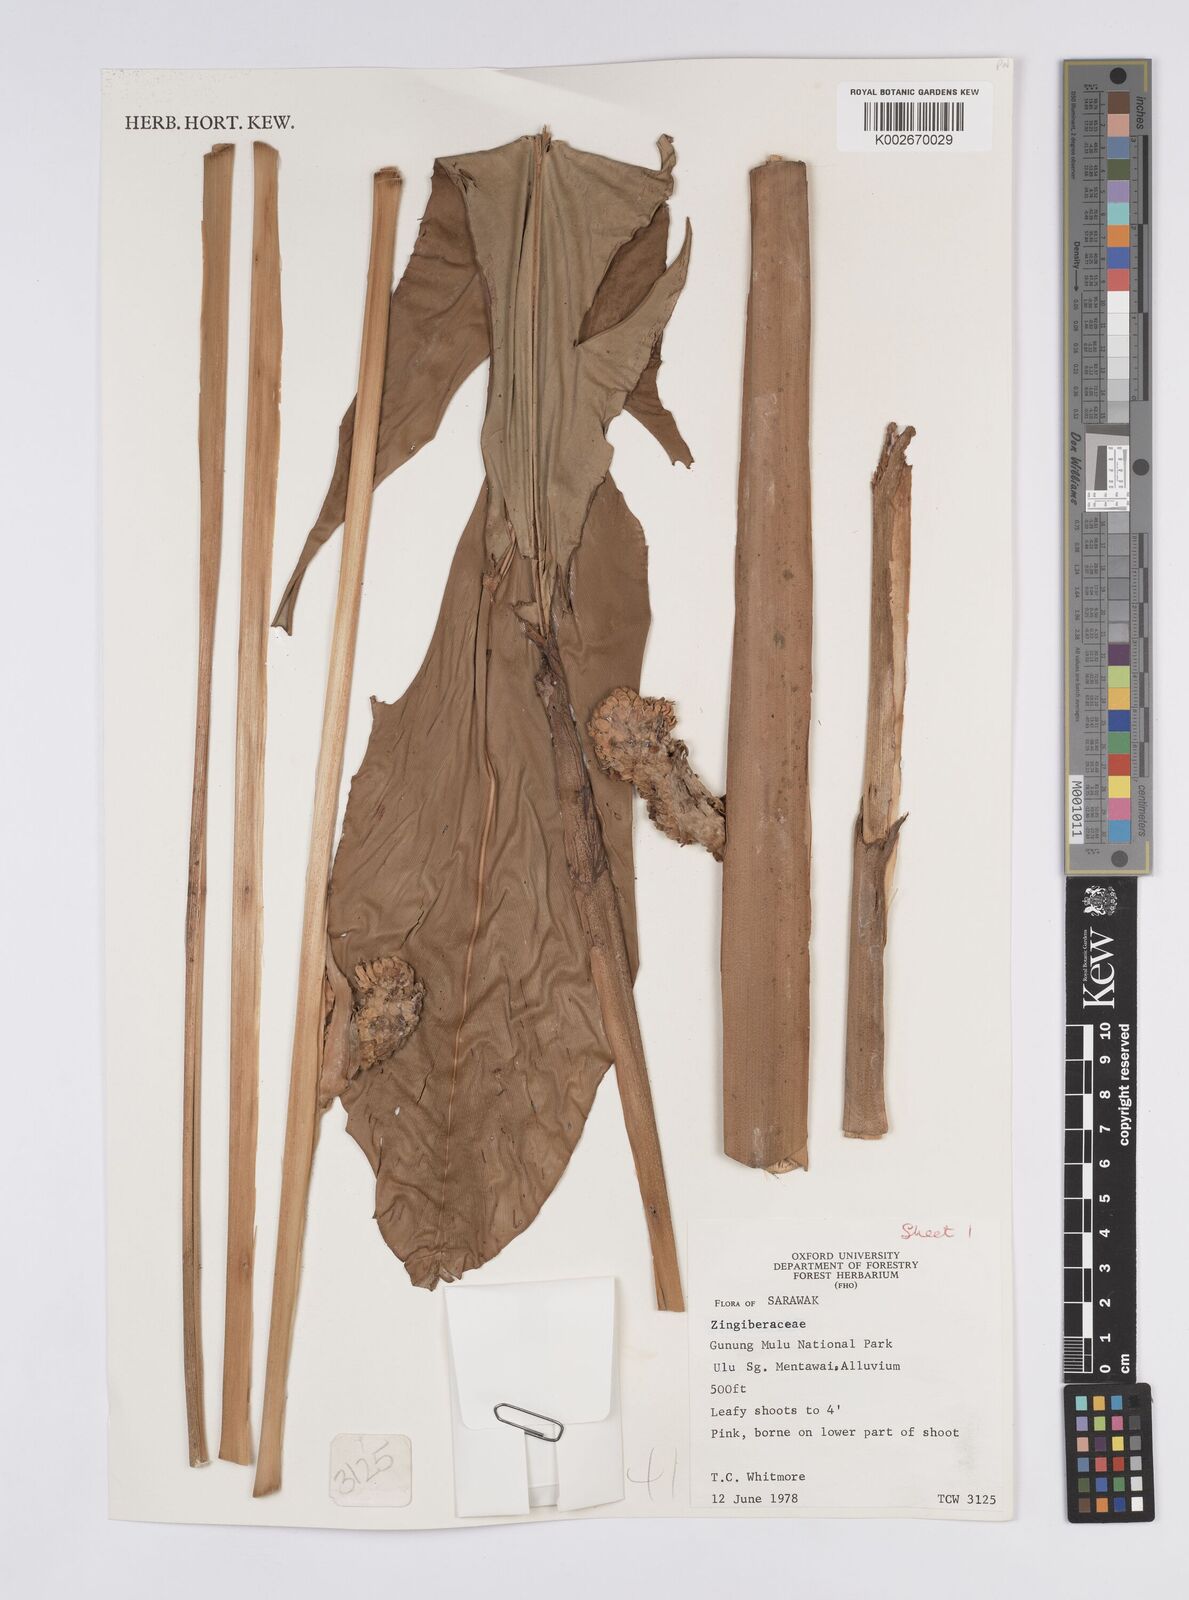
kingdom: Plantae
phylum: Tracheophyta
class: Liliopsida
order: Zingiberales
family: Zingiberaceae
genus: Plagiostachys
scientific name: Plagiostachys
